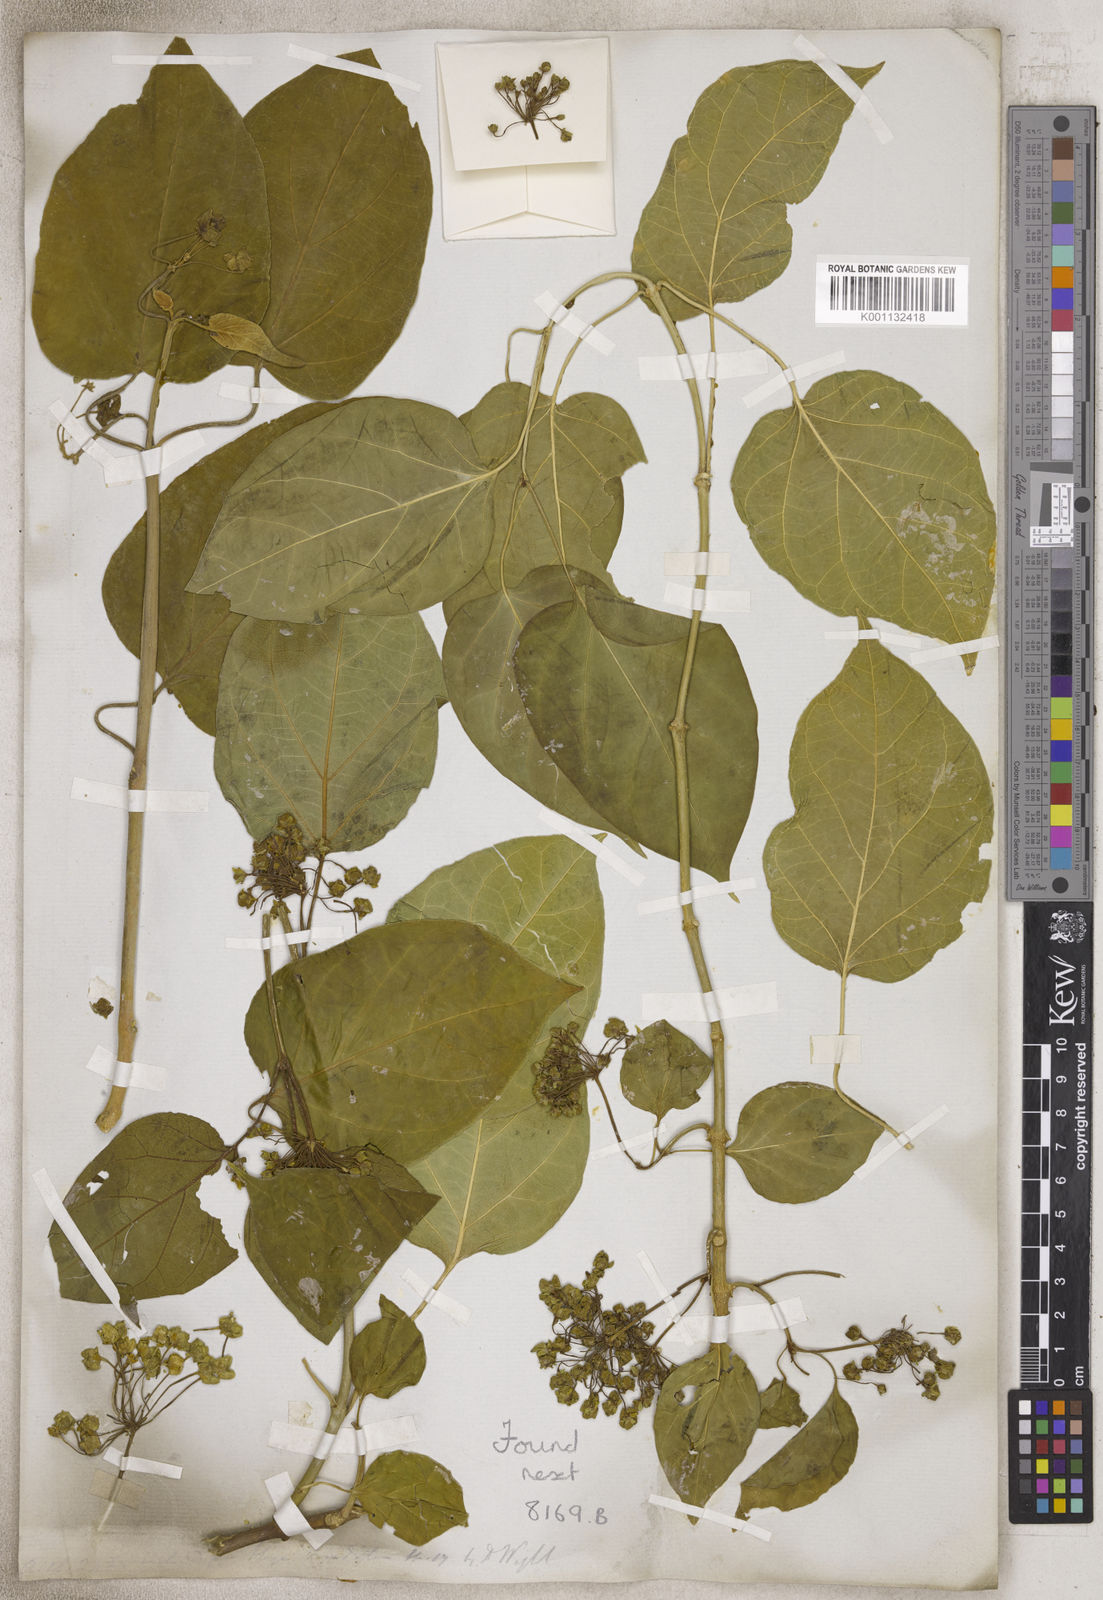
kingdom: Plantae
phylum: Tracheophyta
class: Magnoliopsida
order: Gentianales
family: Apocynaceae
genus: Hoya
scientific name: Hoya
